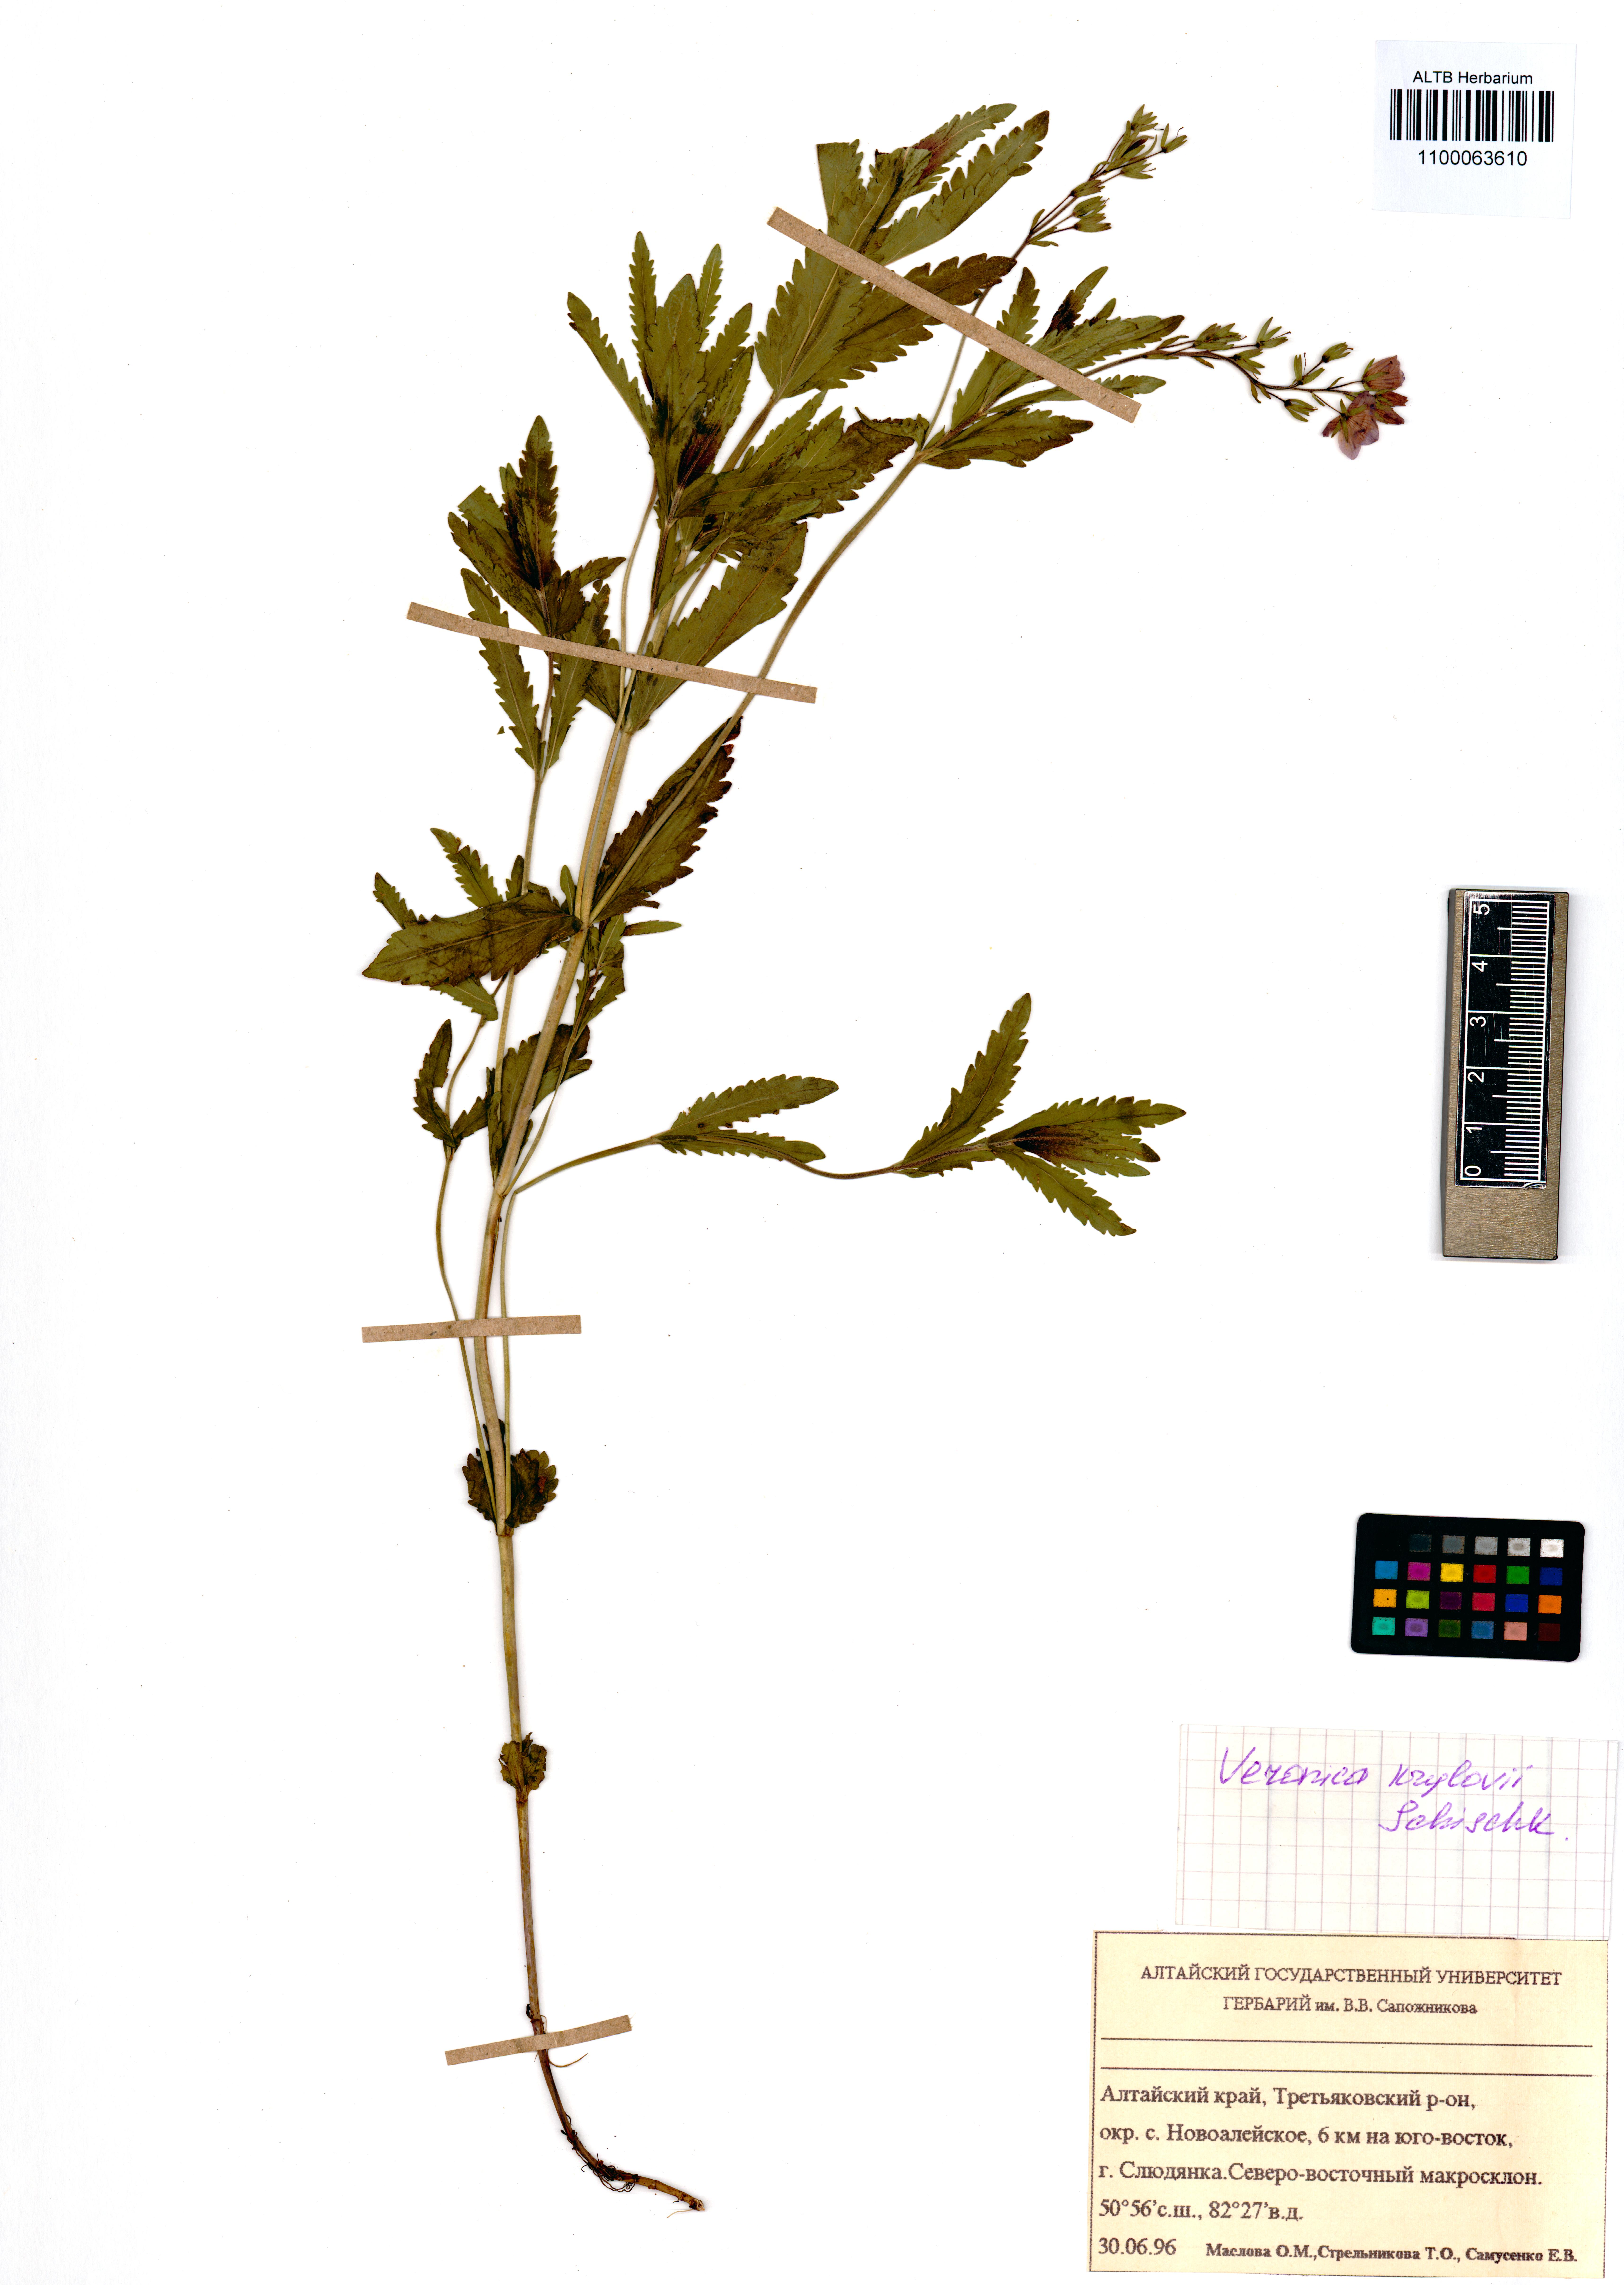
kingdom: Plantae
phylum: Tracheophyta
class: Magnoliopsida
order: Lamiales
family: Plantaginaceae
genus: Veronica
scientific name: Veronica krylovii
